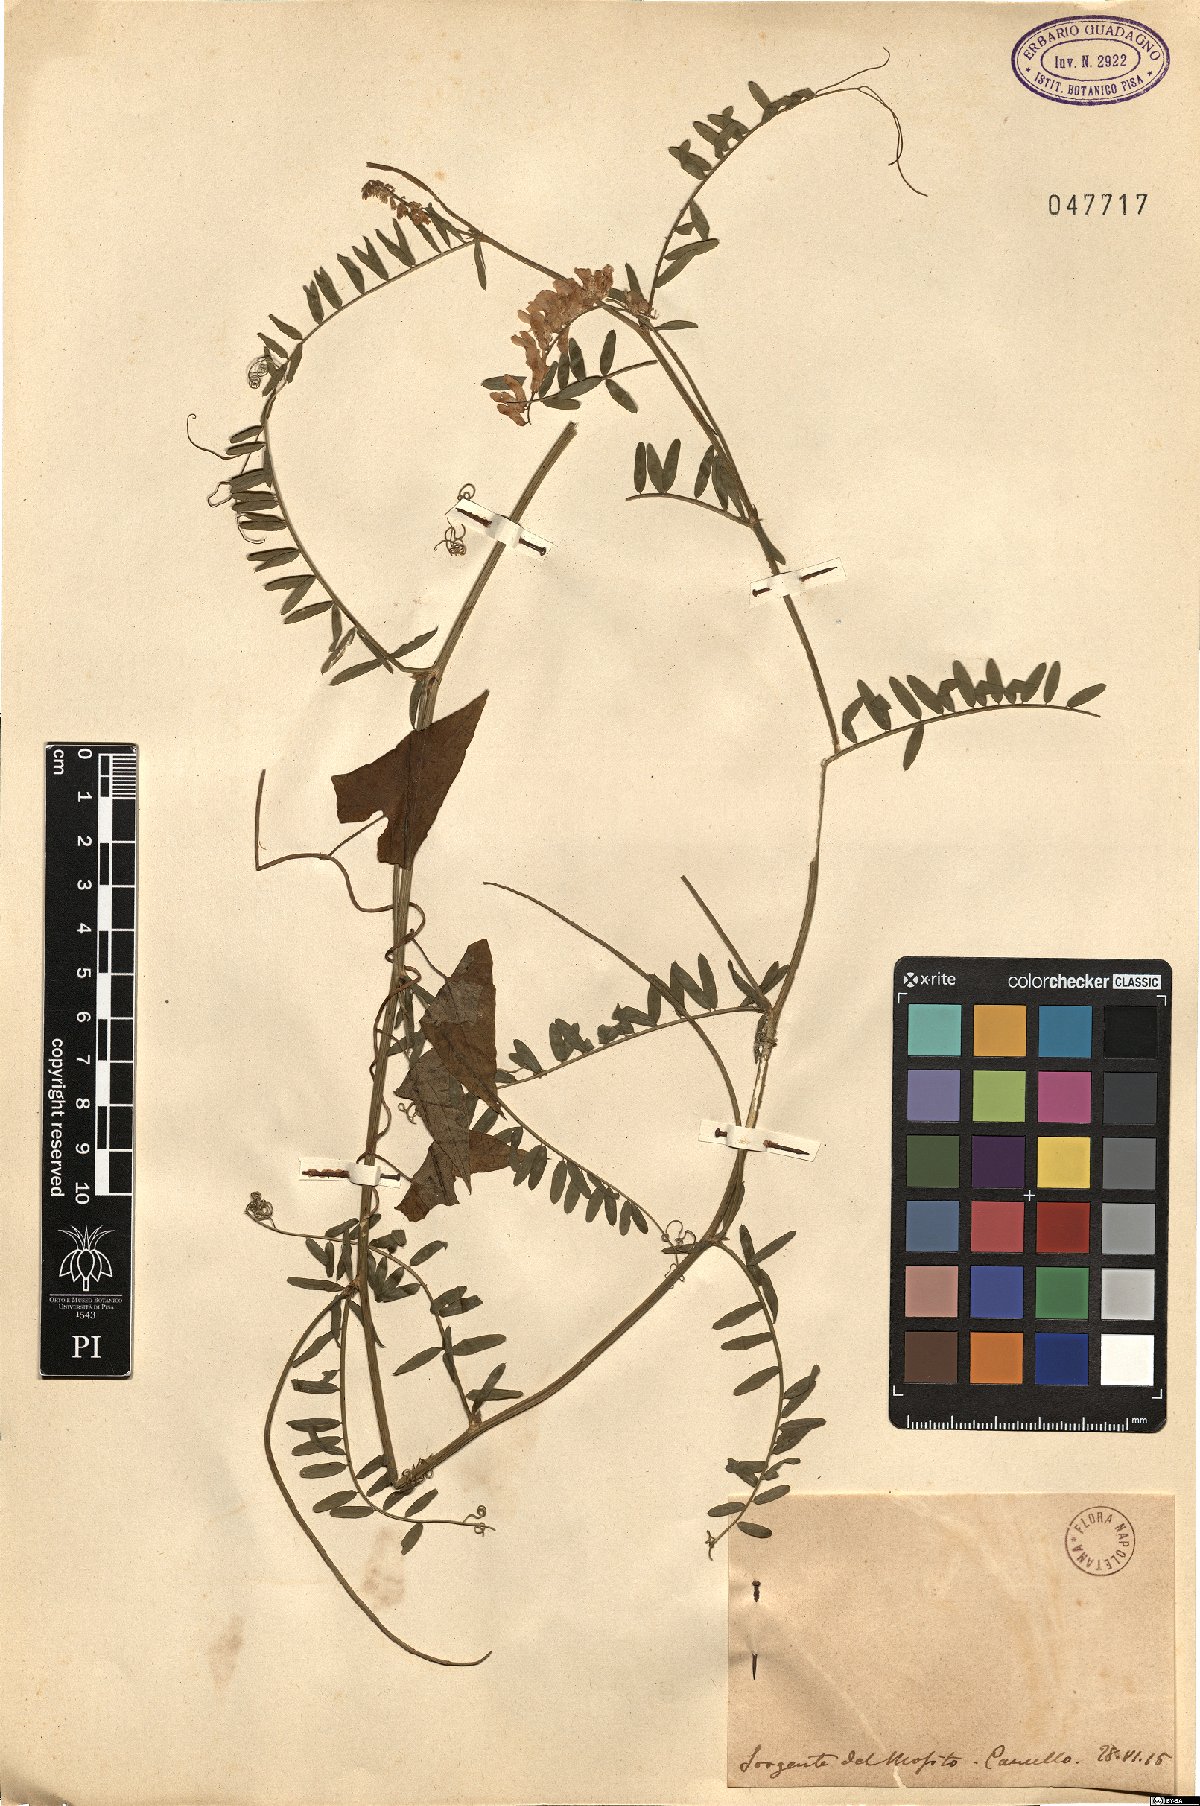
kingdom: Plantae
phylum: Tracheophyta
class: Magnoliopsida
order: Fabales
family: Fabaceae
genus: Vicia
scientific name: Vicia
